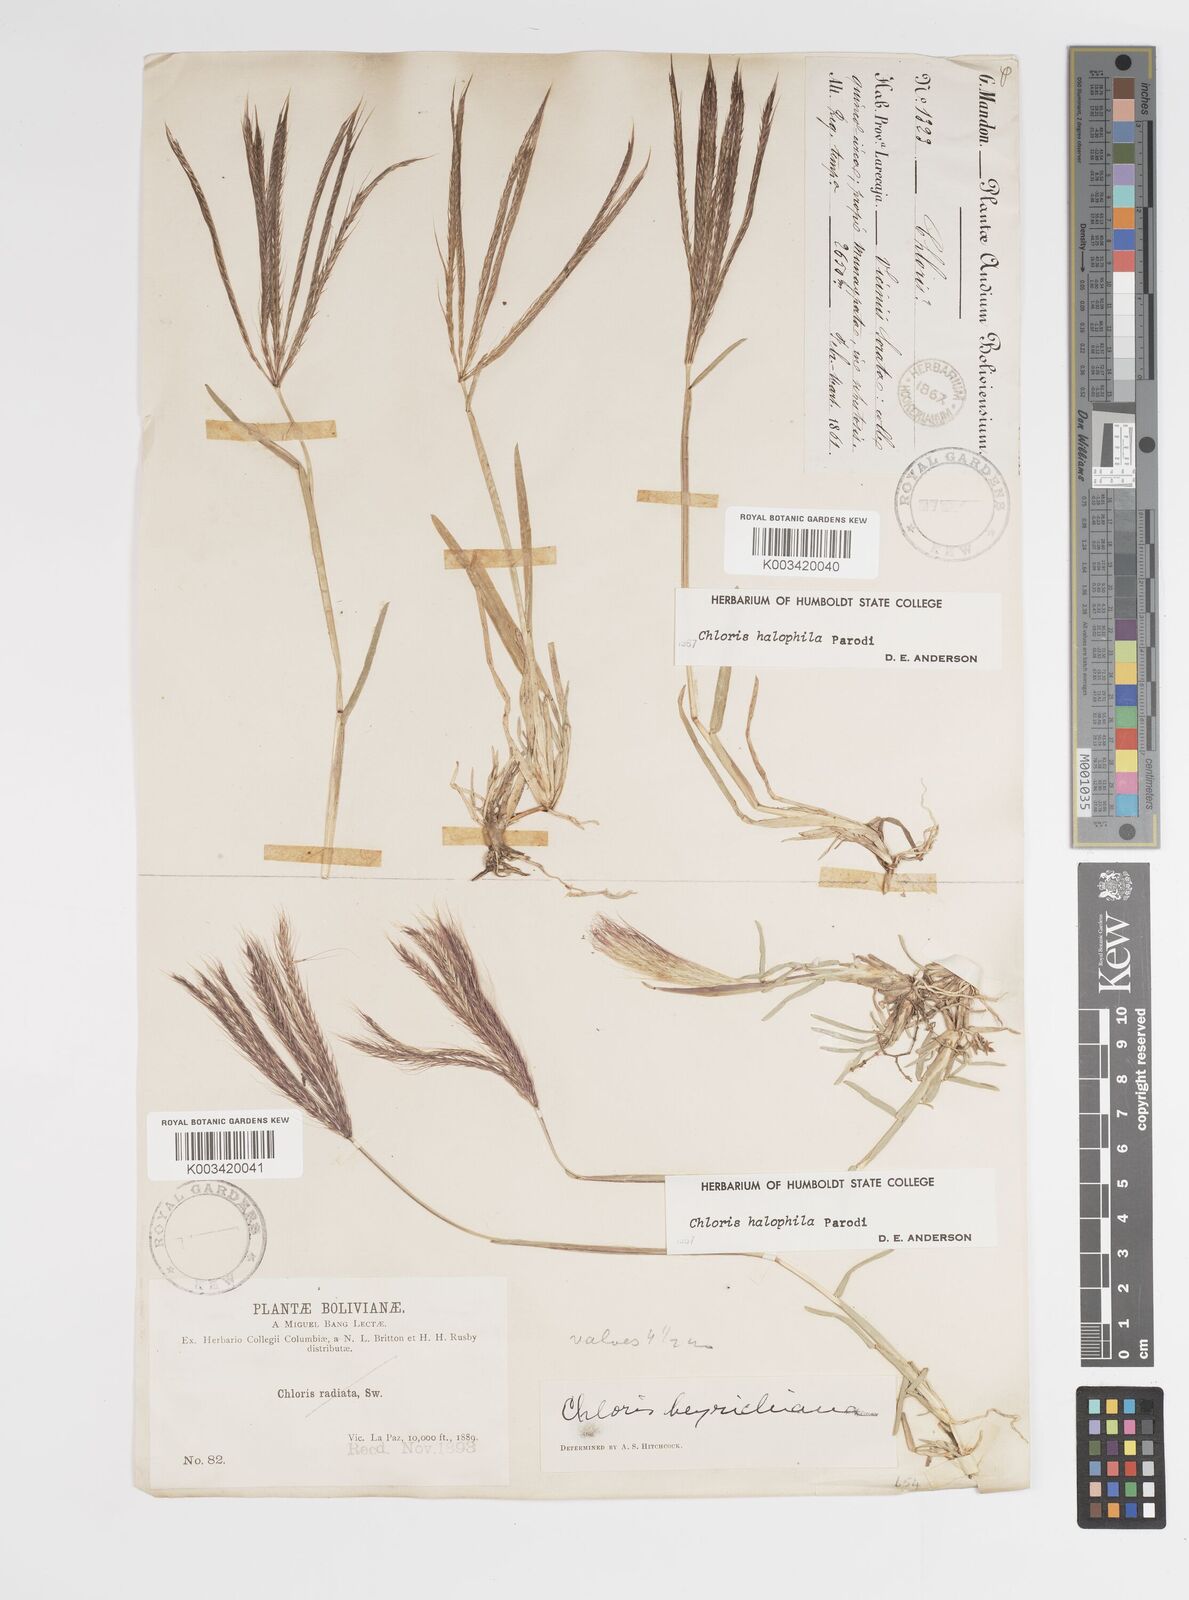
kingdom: Plantae
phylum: Tracheophyta
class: Liliopsida
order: Poales
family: Poaceae
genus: Chloris
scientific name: Chloris halophila
